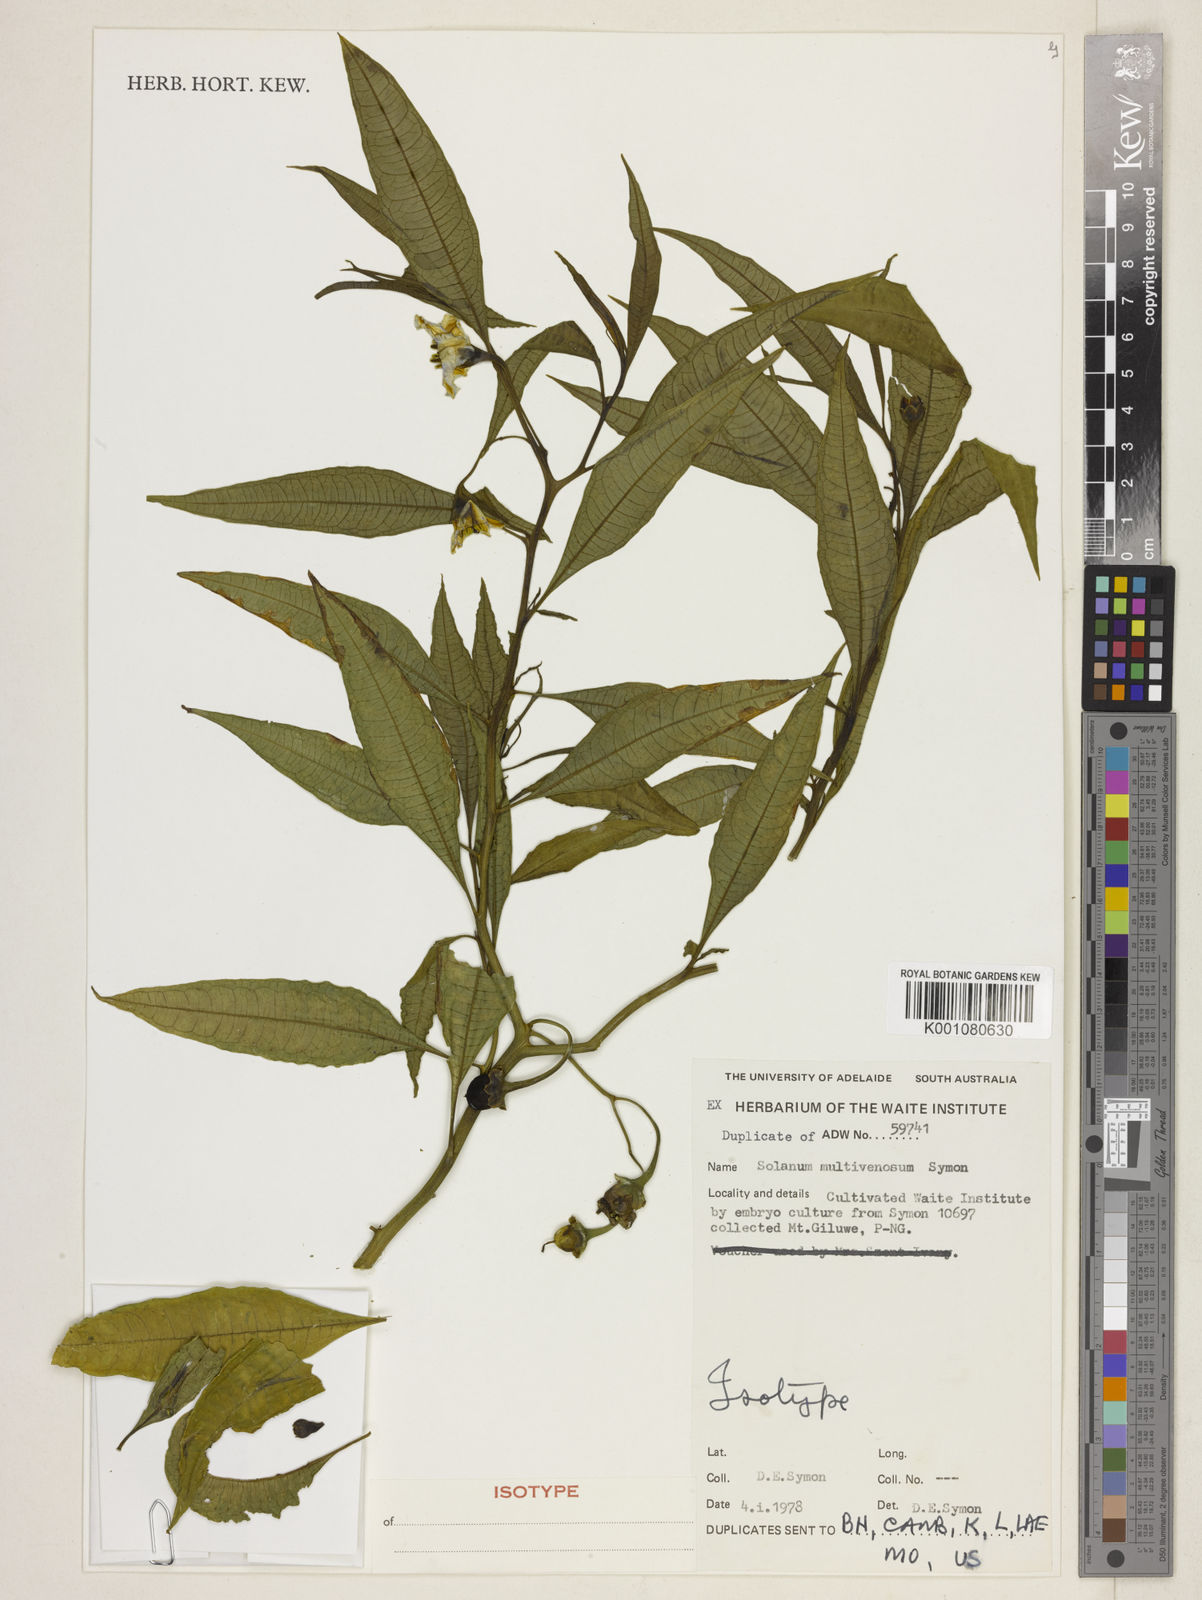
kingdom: Plantae
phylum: Tracheophyta
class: Magnoliopsida
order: Solanales
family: Solanaceae
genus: Solanum
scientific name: Solanum multivenosum
